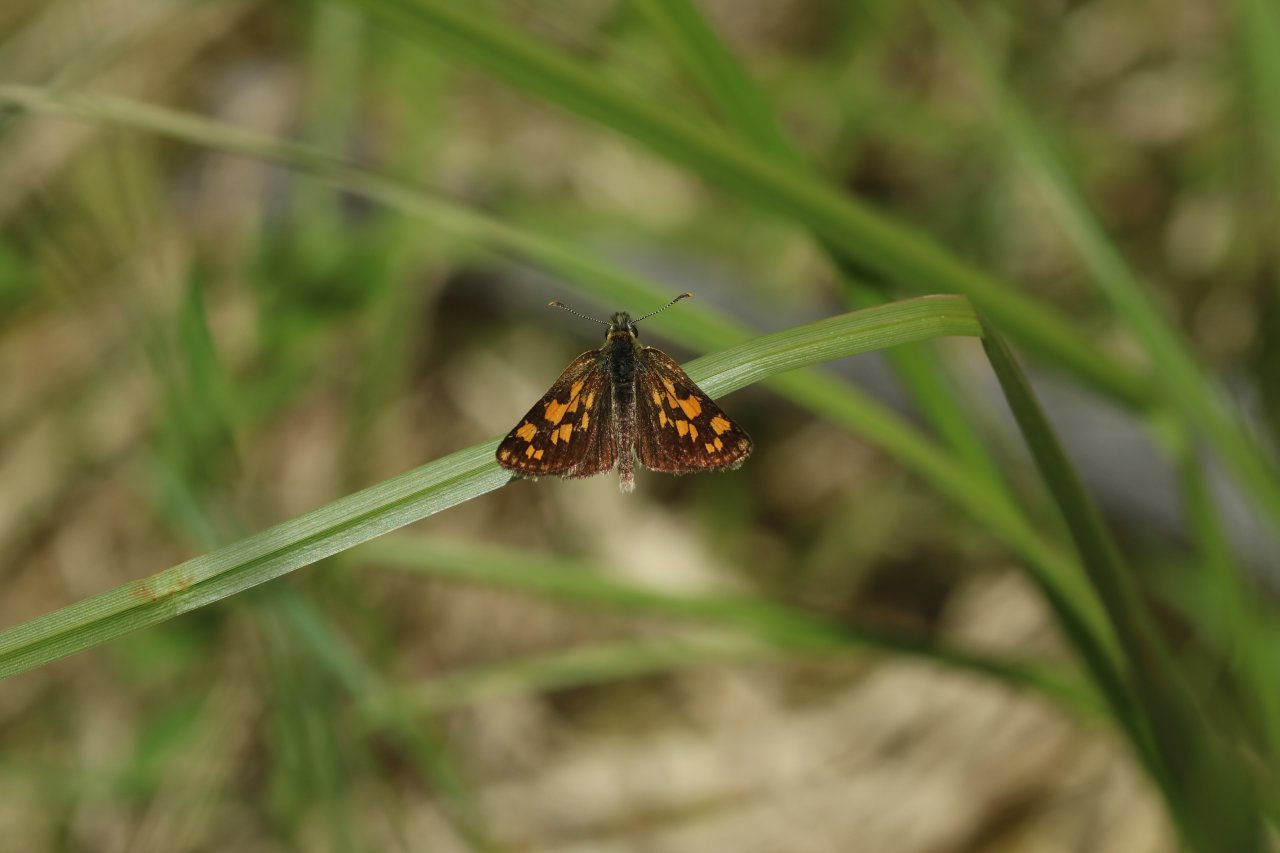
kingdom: Animalia
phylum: Arthropoda
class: Insecta
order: Lepidoptera
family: Hesperiidae
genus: Carterocephalus
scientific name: Carterocephalus palaemon
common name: Chequered Skipper
